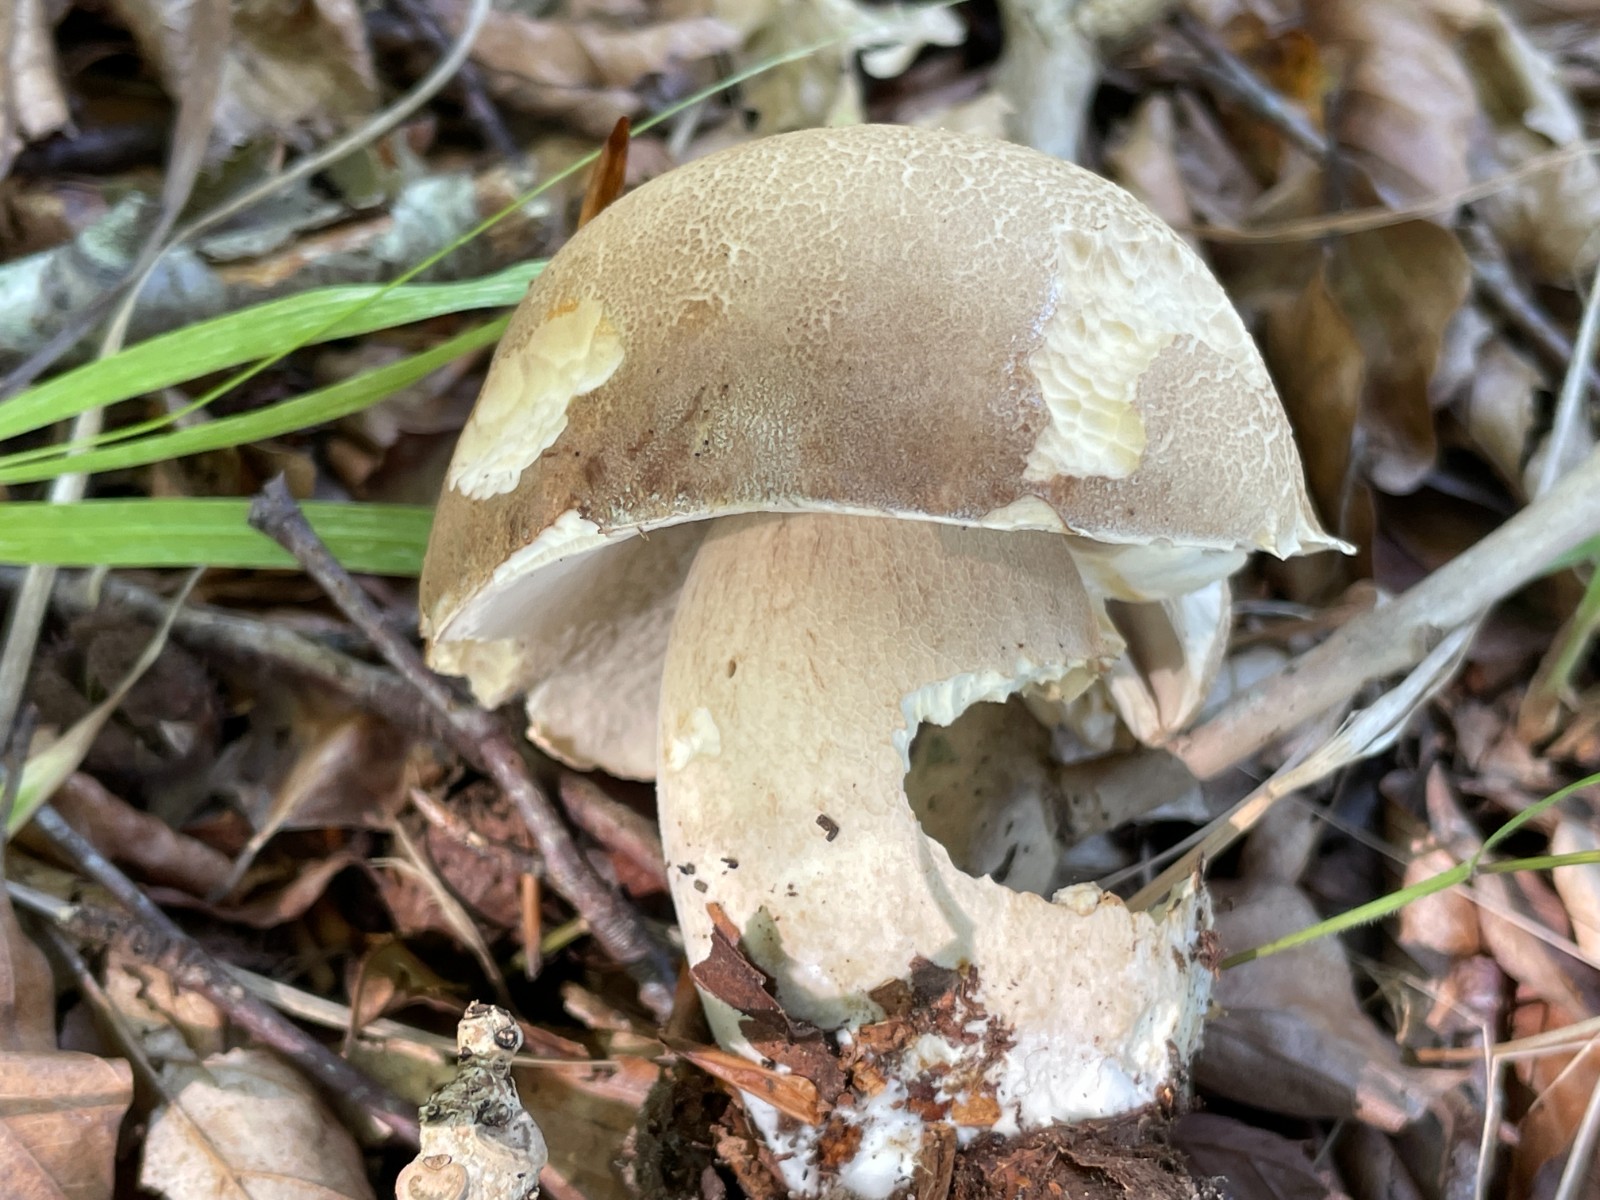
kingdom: Fungi
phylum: Basidiomycota
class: Agaricomycetes
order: Boletales
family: Boletaceae
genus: Boletus
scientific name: Boletus reticulatus
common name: sommer-rørhat
